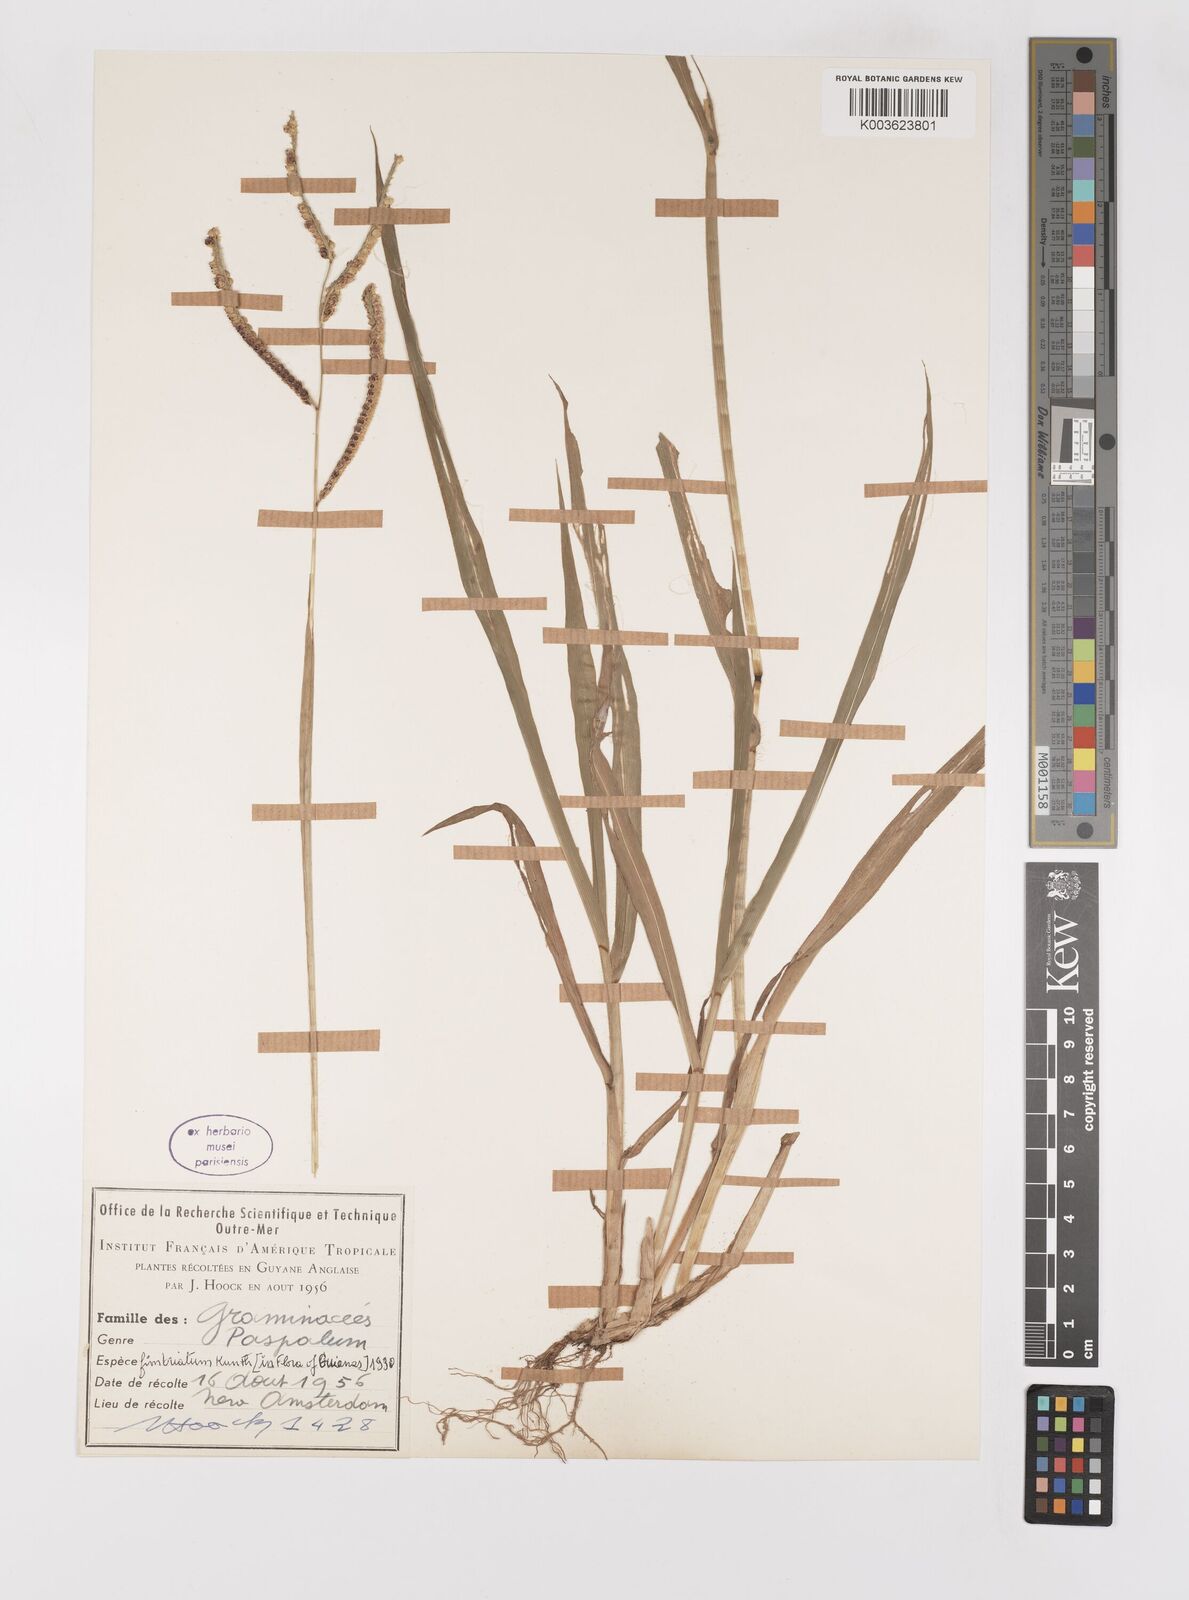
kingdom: Plantae
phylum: Tracheophyta
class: Liliopsida
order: Poales
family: Poaceae
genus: Paspalum
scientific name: Paspalum fimbriatum
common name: Panama crowngrass
